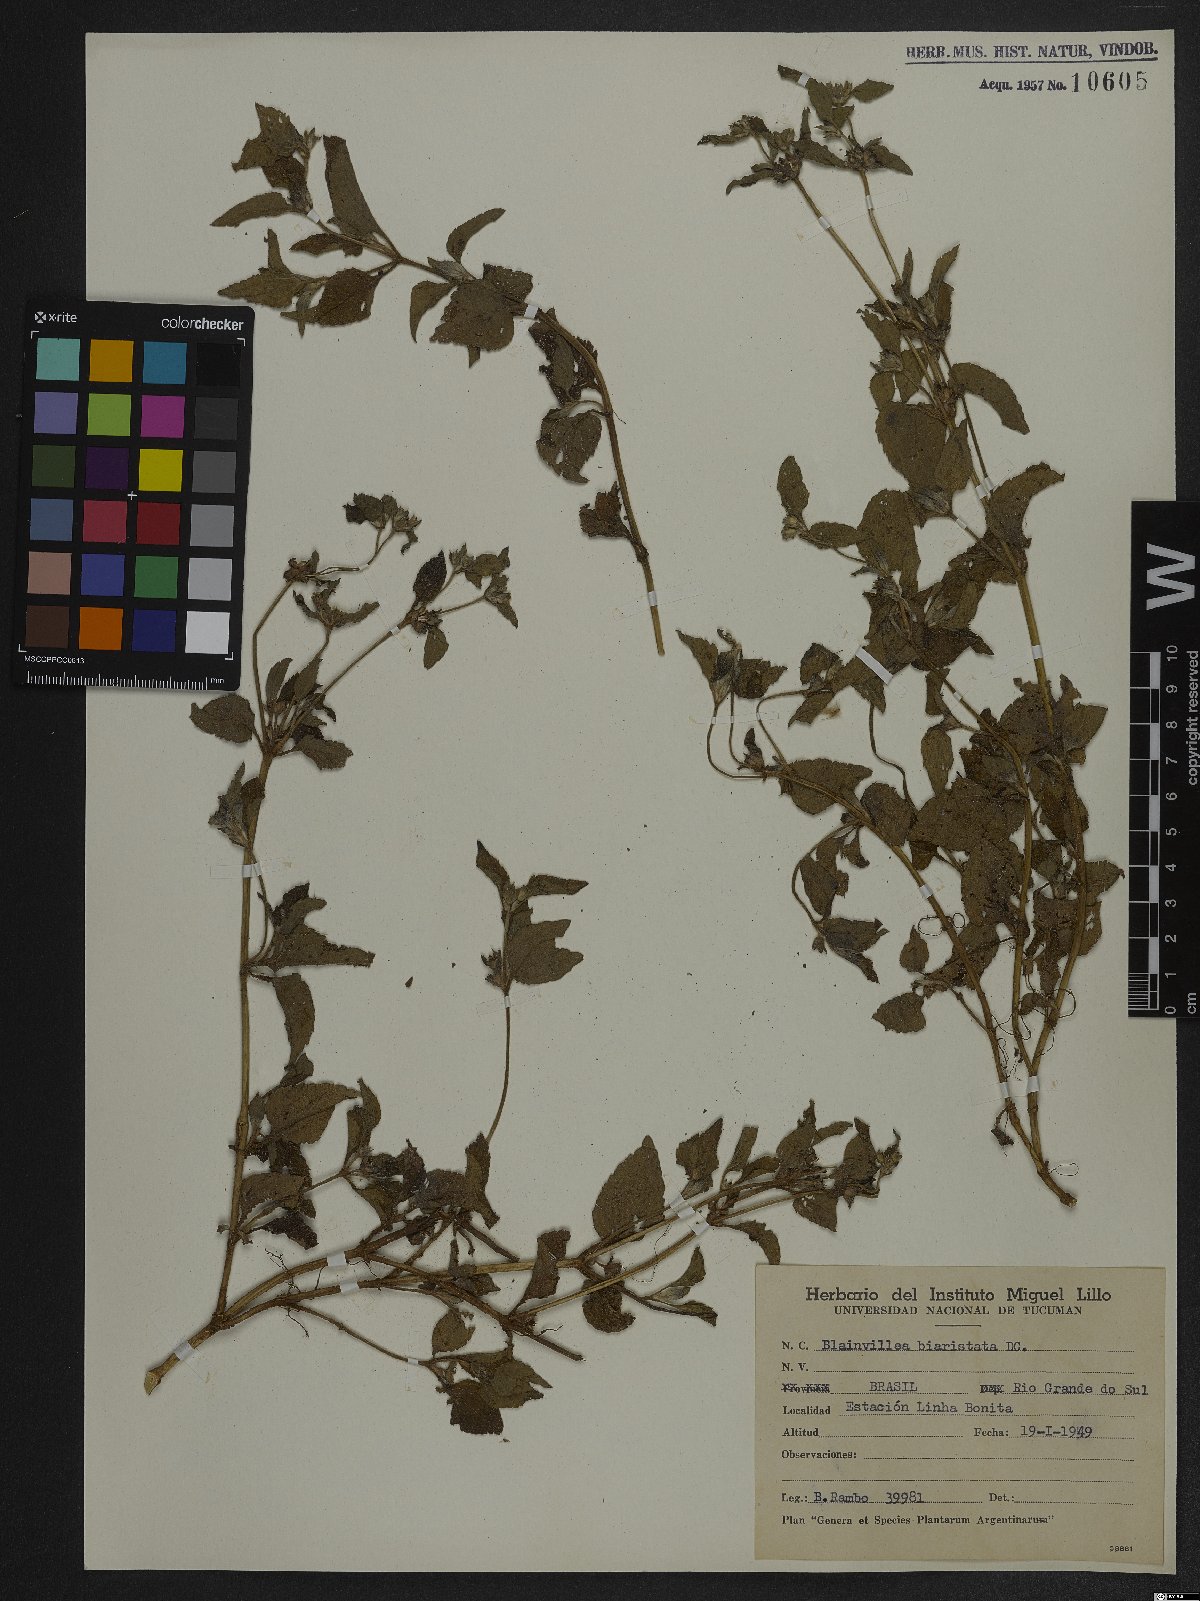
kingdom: Plantae
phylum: Tracheophyta
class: Magnoliopsida
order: Asterales
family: Asteraceae
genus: Calyptocarpus
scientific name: Calyptocarpus brasiliensis
